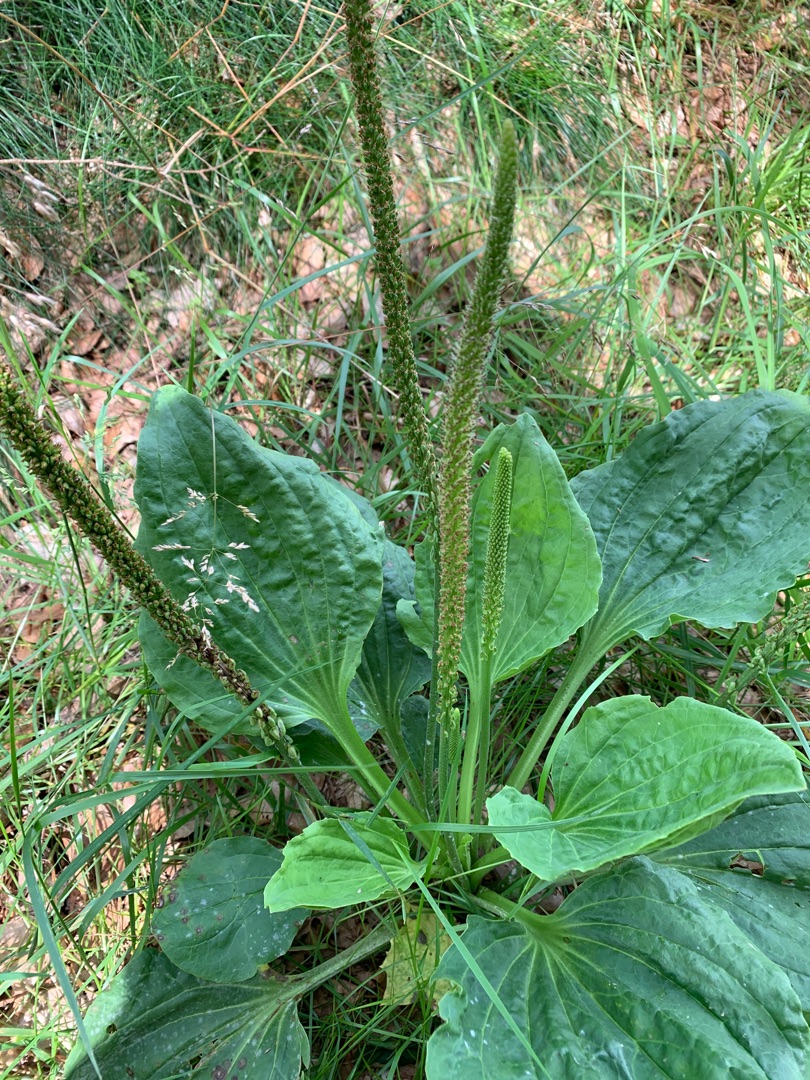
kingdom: Plantae
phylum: Tracheophyta
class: Magnoliopsida
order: Lamiales
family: Plantaginaceae
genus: Plantago
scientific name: Plantago major
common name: Glat vejbred
